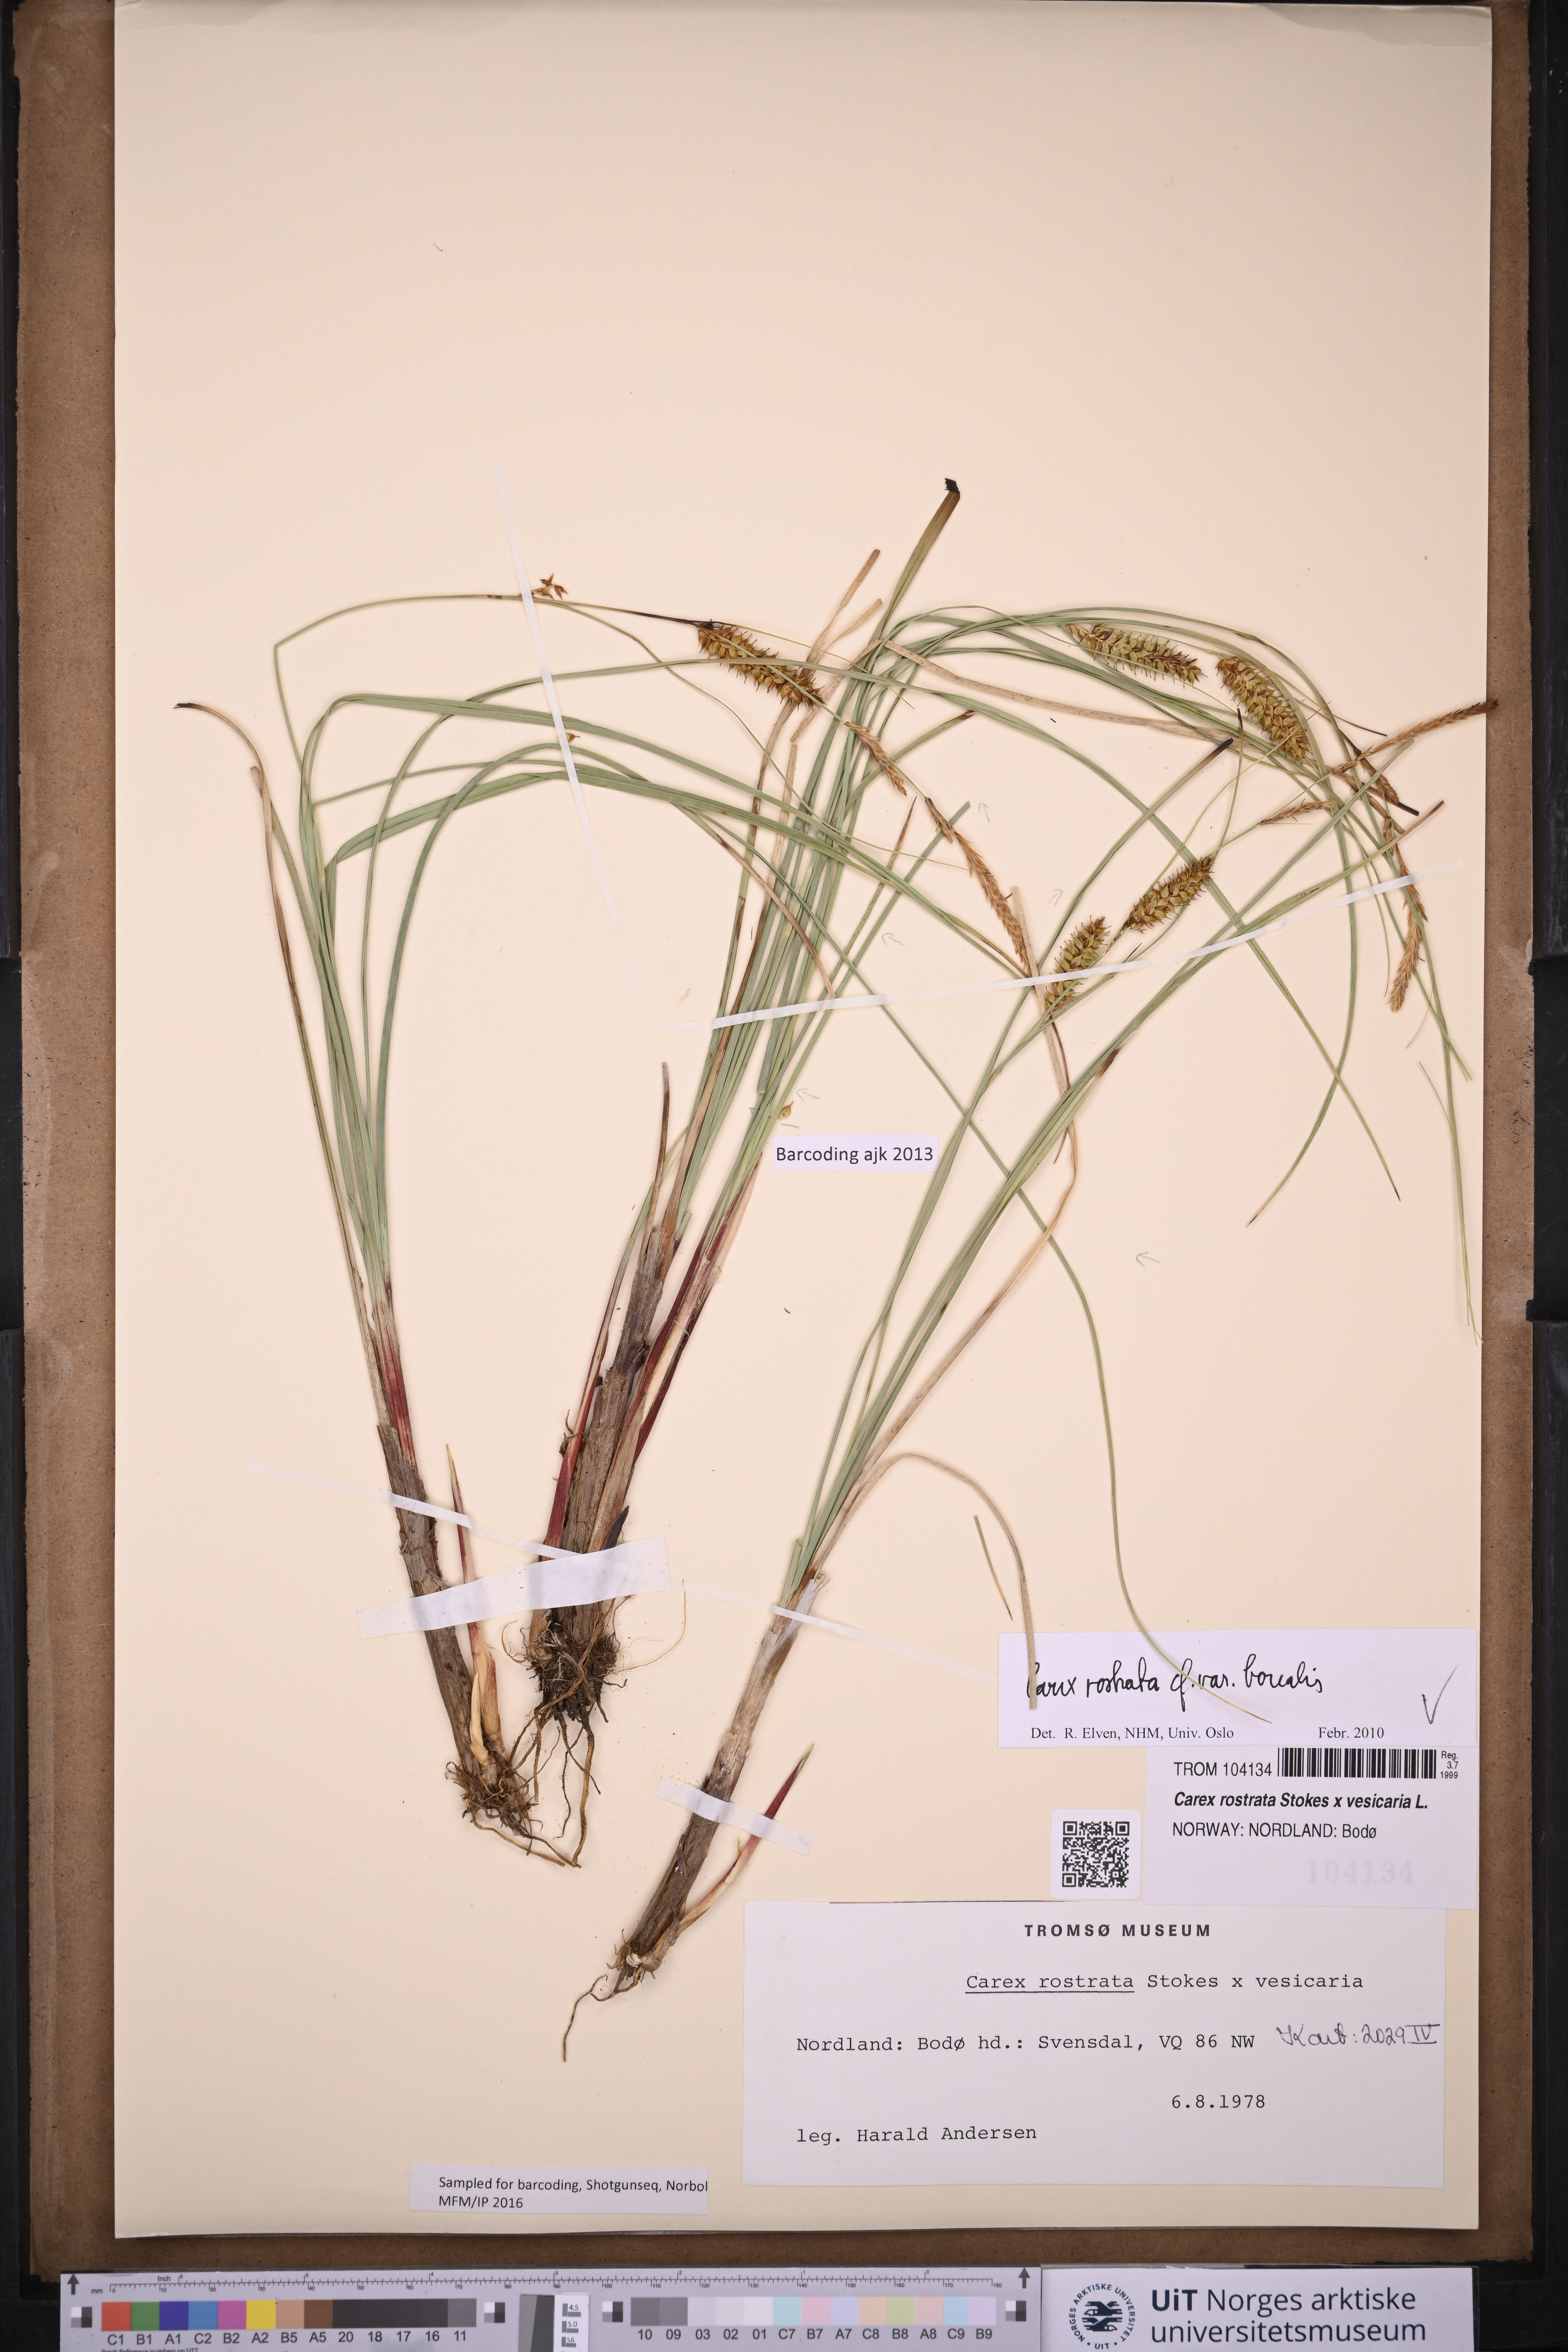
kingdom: Plantae
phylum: Tracheophyta
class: Liliopsida
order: Poales
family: Cyperaceae
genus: Carex
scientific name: Carex saamica
